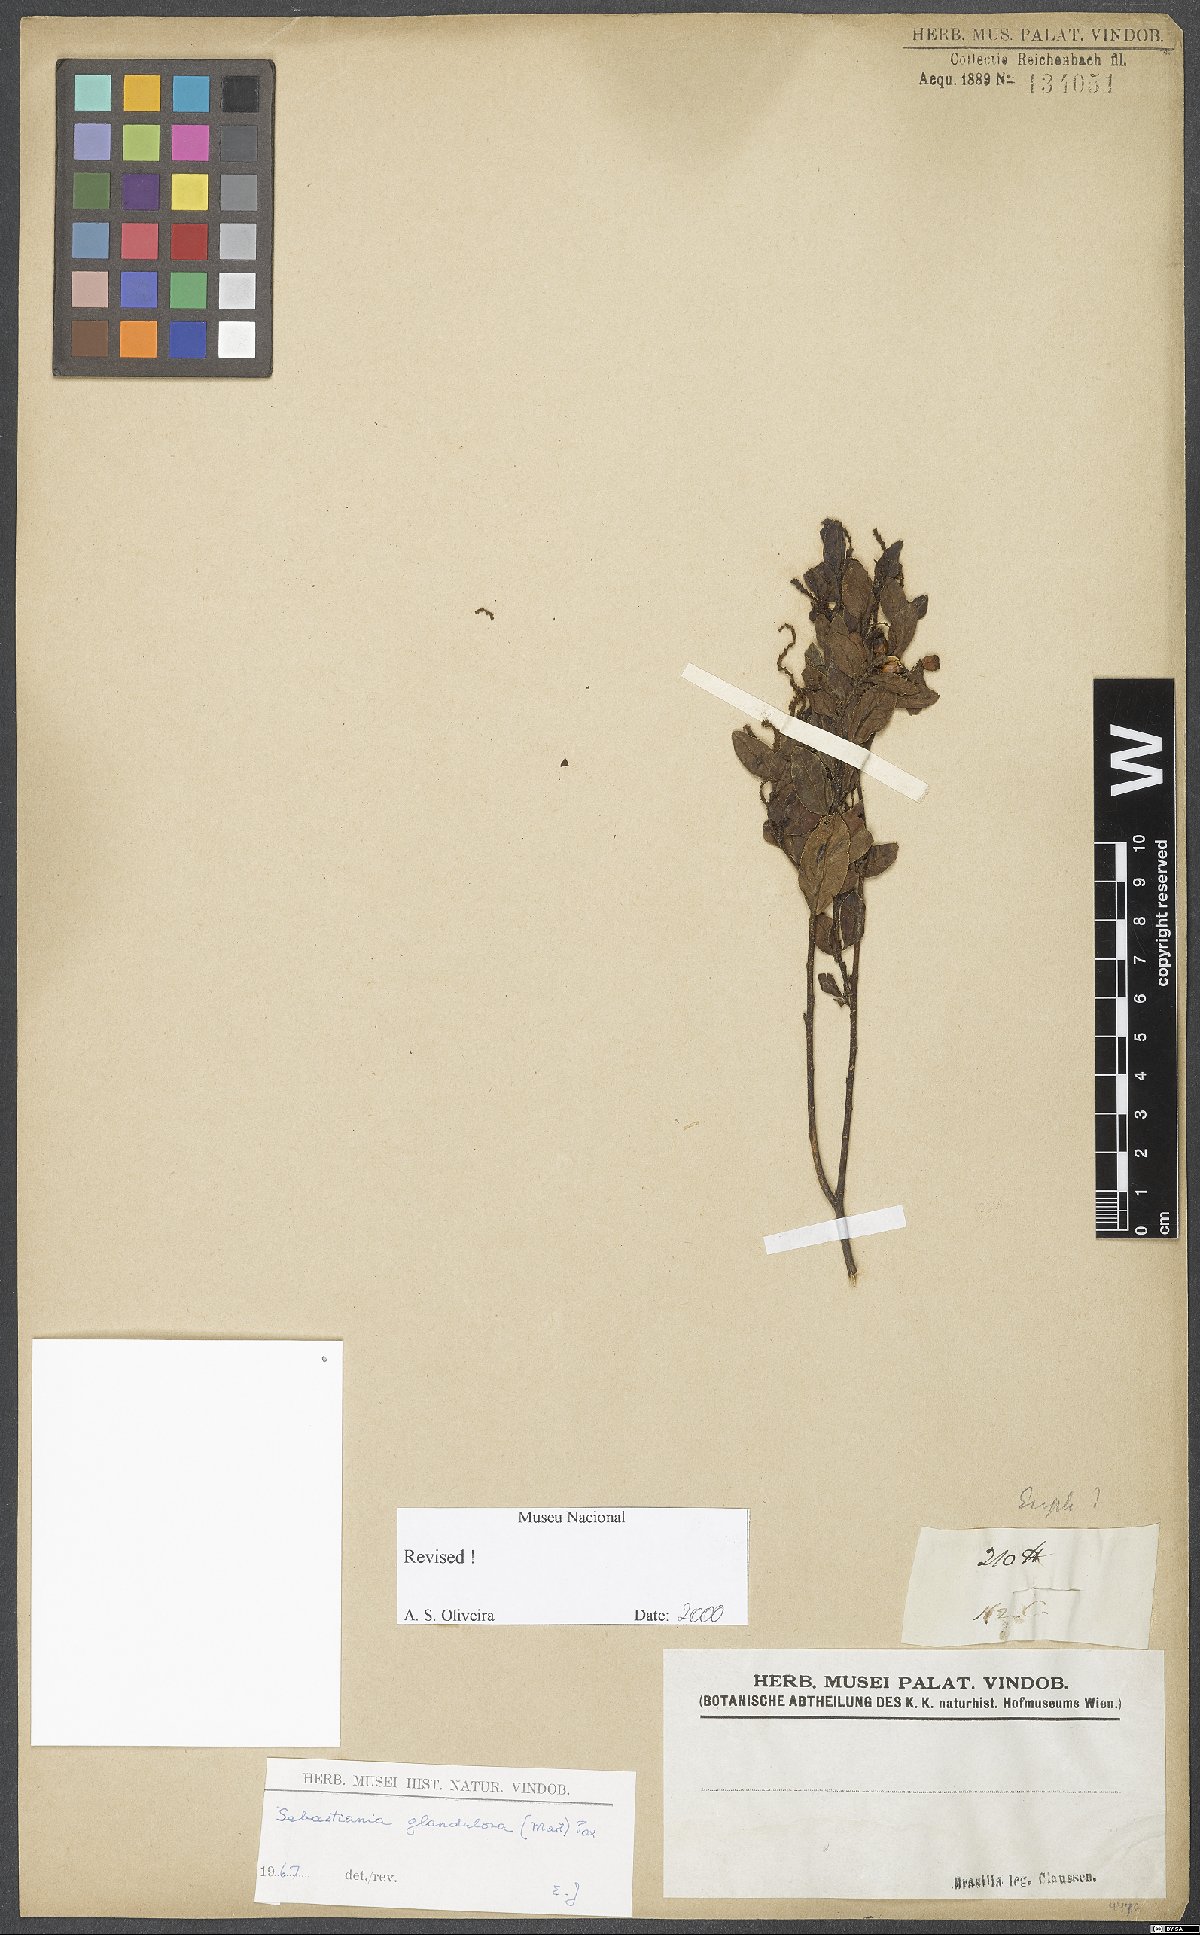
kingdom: Plantae
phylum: Tracheophyta
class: Magnoliopsida
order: Malpighiales
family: Euphorbiaceae
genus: Microstachys
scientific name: Microstachys corniculata
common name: Hato tejas
